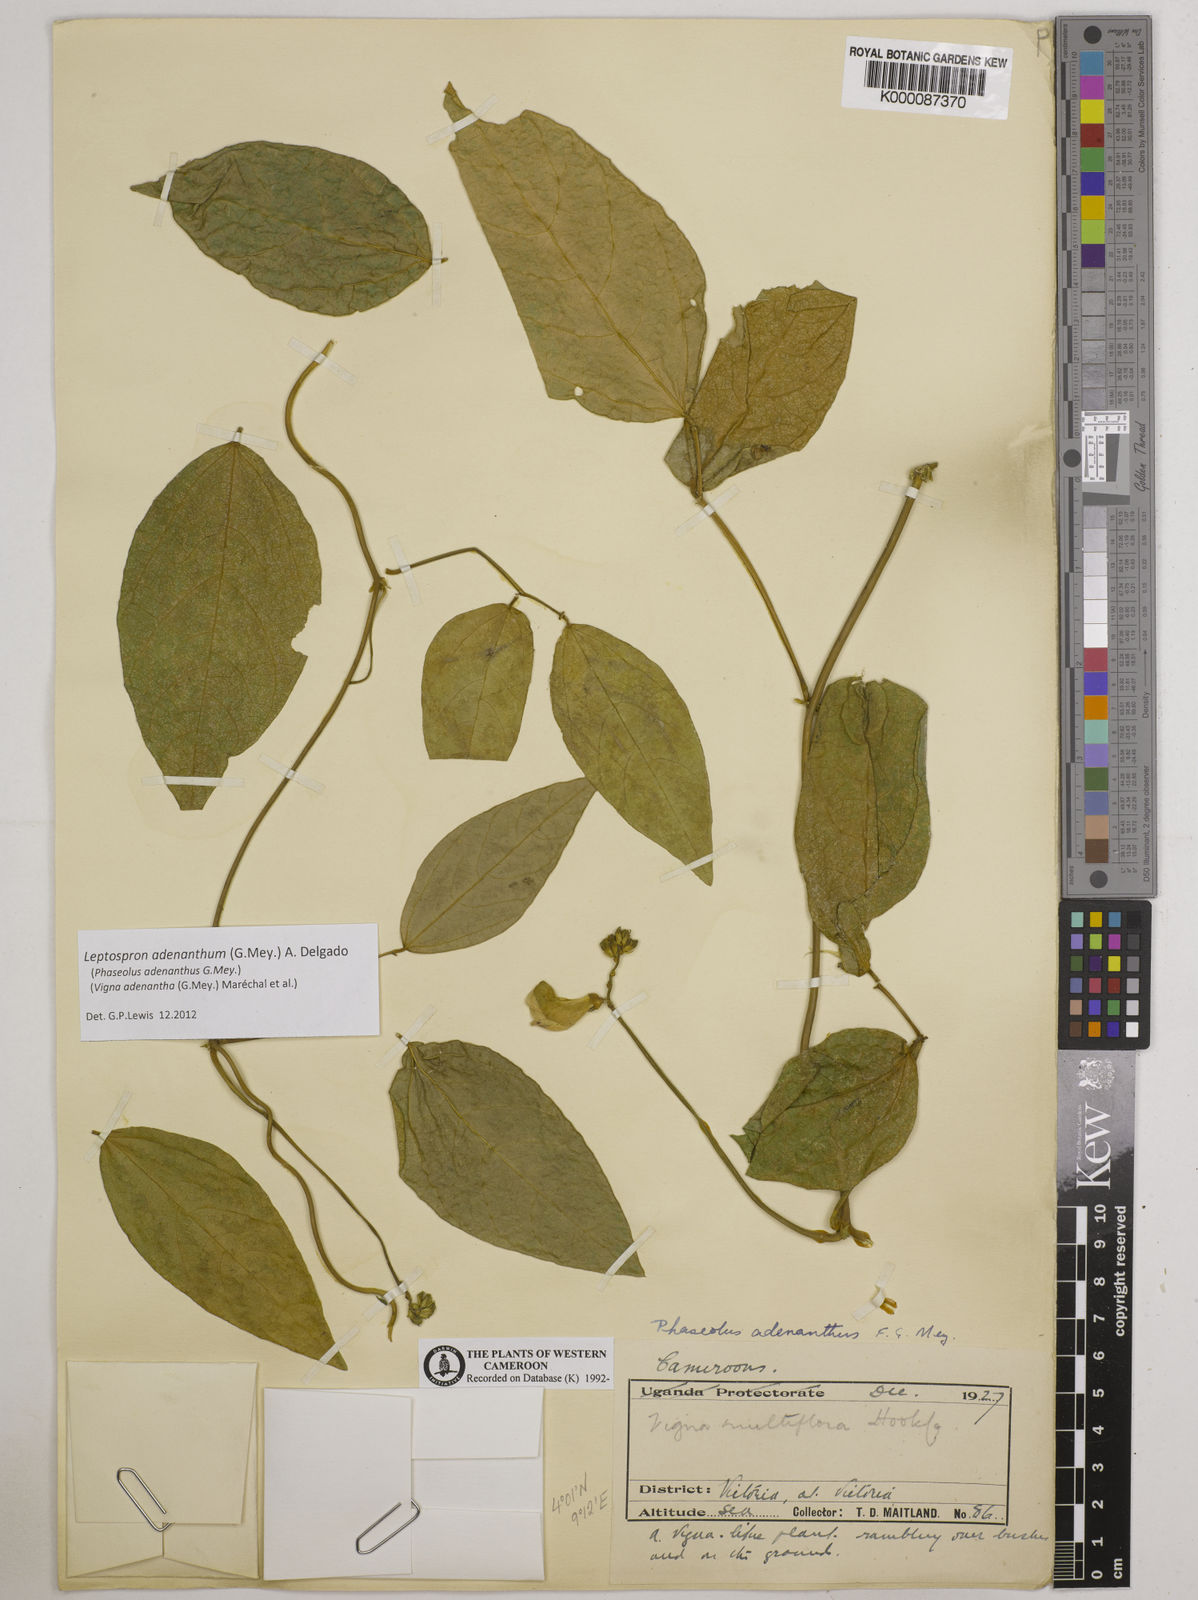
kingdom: Plantae
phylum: Tracheophyta
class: Magnoliopsida
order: Fabales
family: Fabaceae
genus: Vigna
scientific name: Vigna
